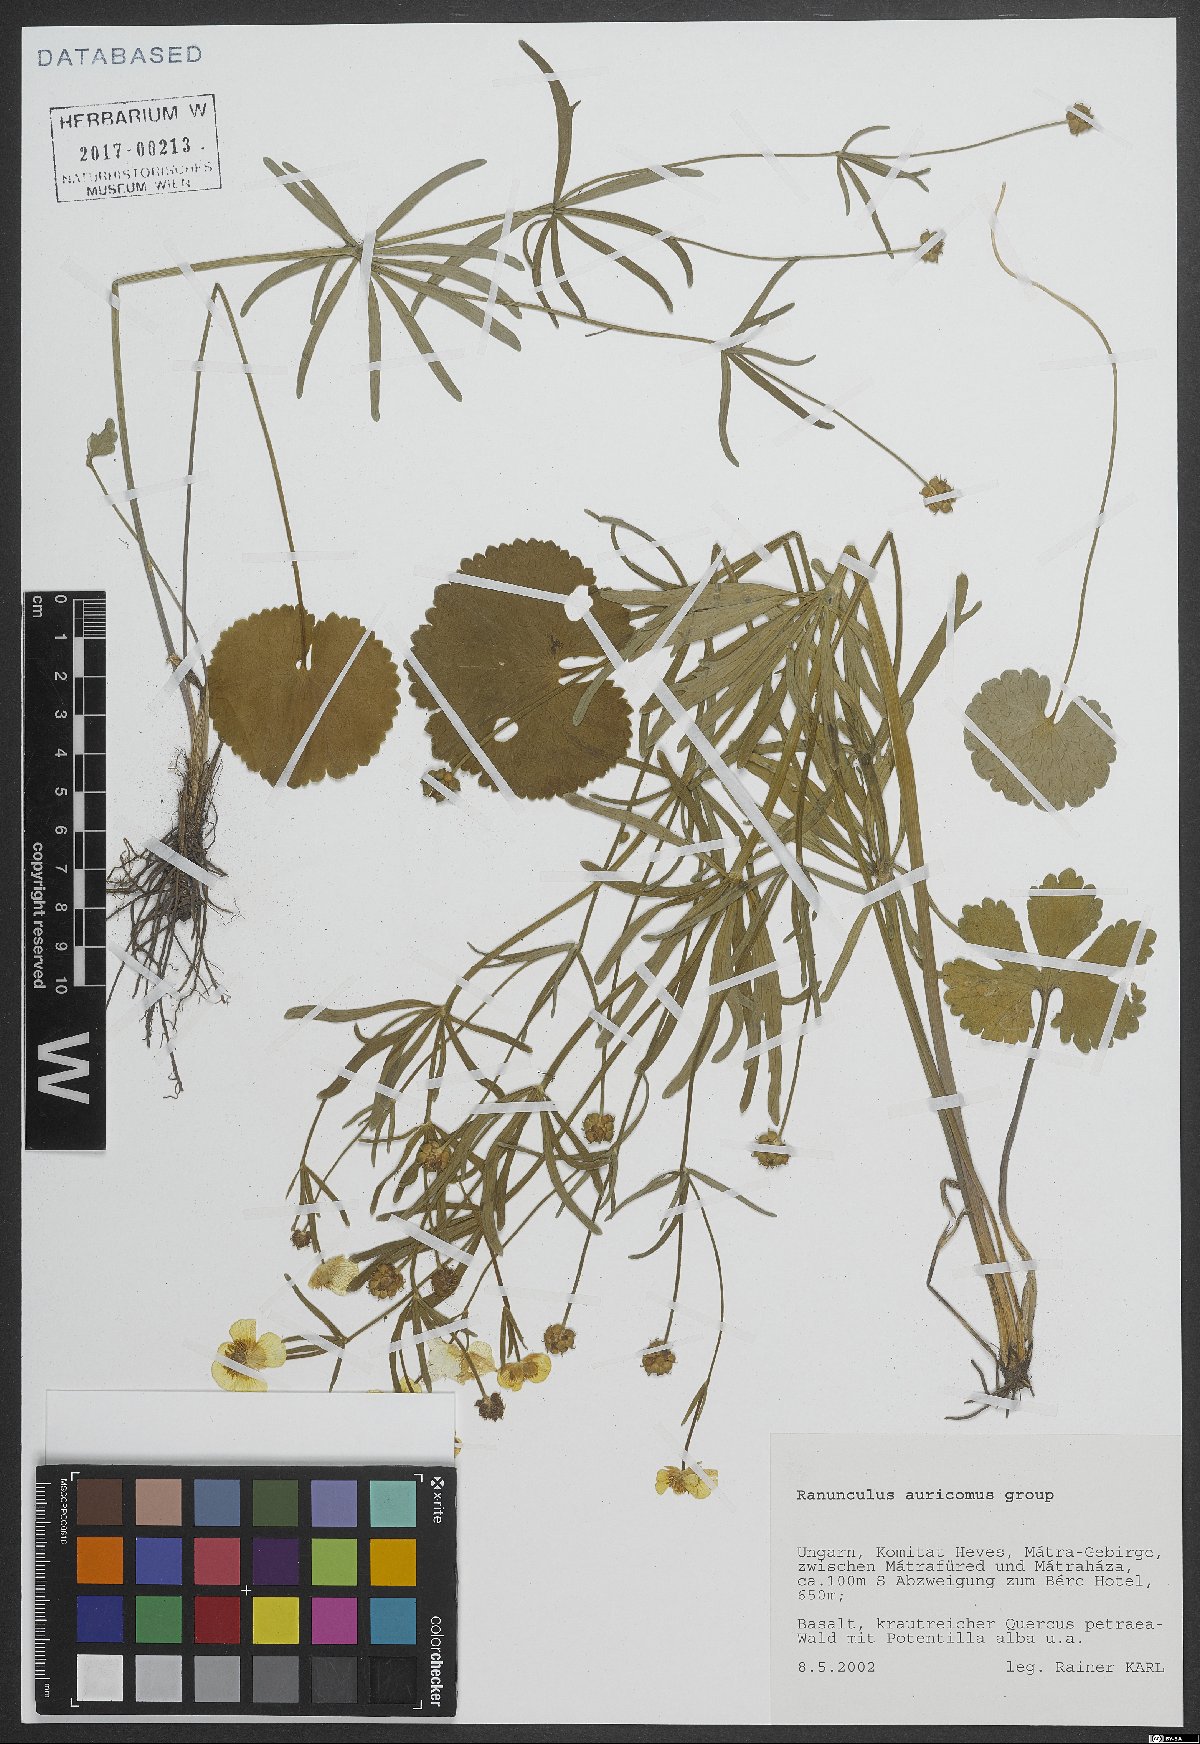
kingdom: Plantae
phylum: Tracheophyta
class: Magnoliopsida
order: Ranunculales
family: Ranunculaceae
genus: Ranunculus
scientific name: Ranunculus auricomus
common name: Goldilocks buttercup
